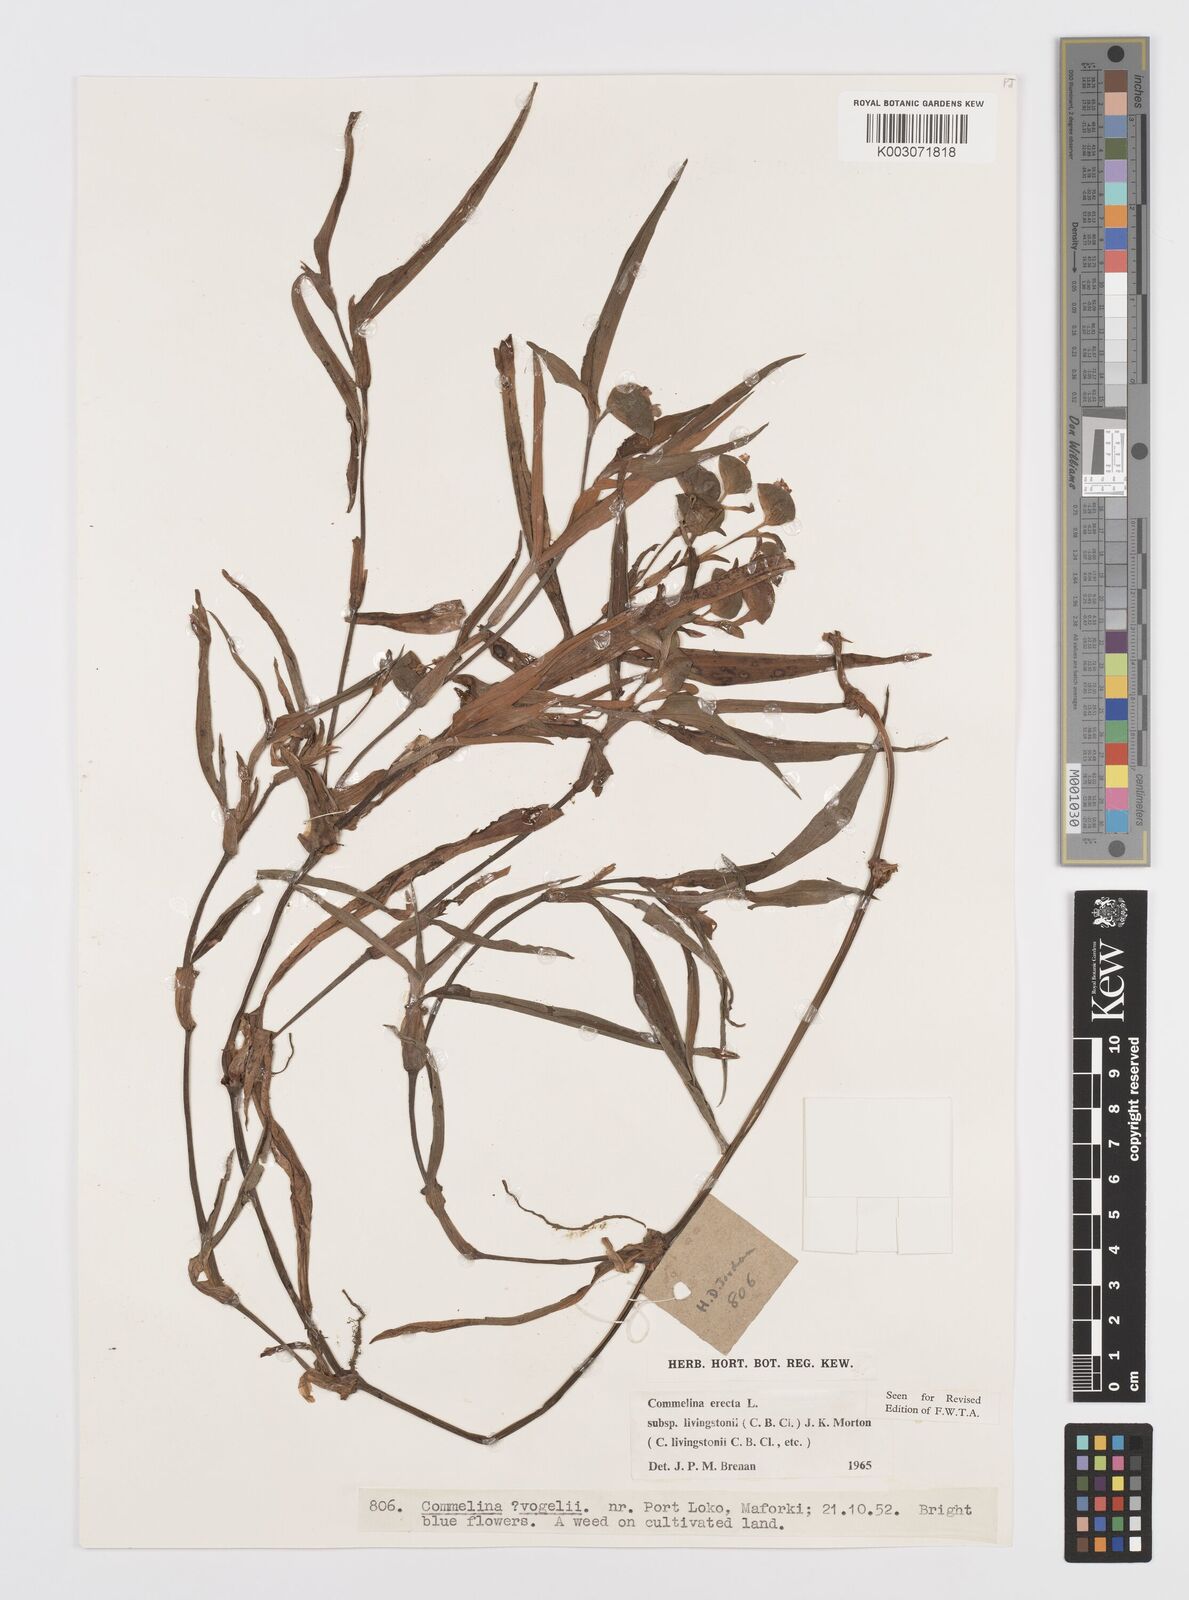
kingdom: Plantae
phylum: Tracheophyta
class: Liliopsida
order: Commelinales
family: Commelinaceae
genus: Commelina
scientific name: Commelina erecta
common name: Blousel blommetjie
